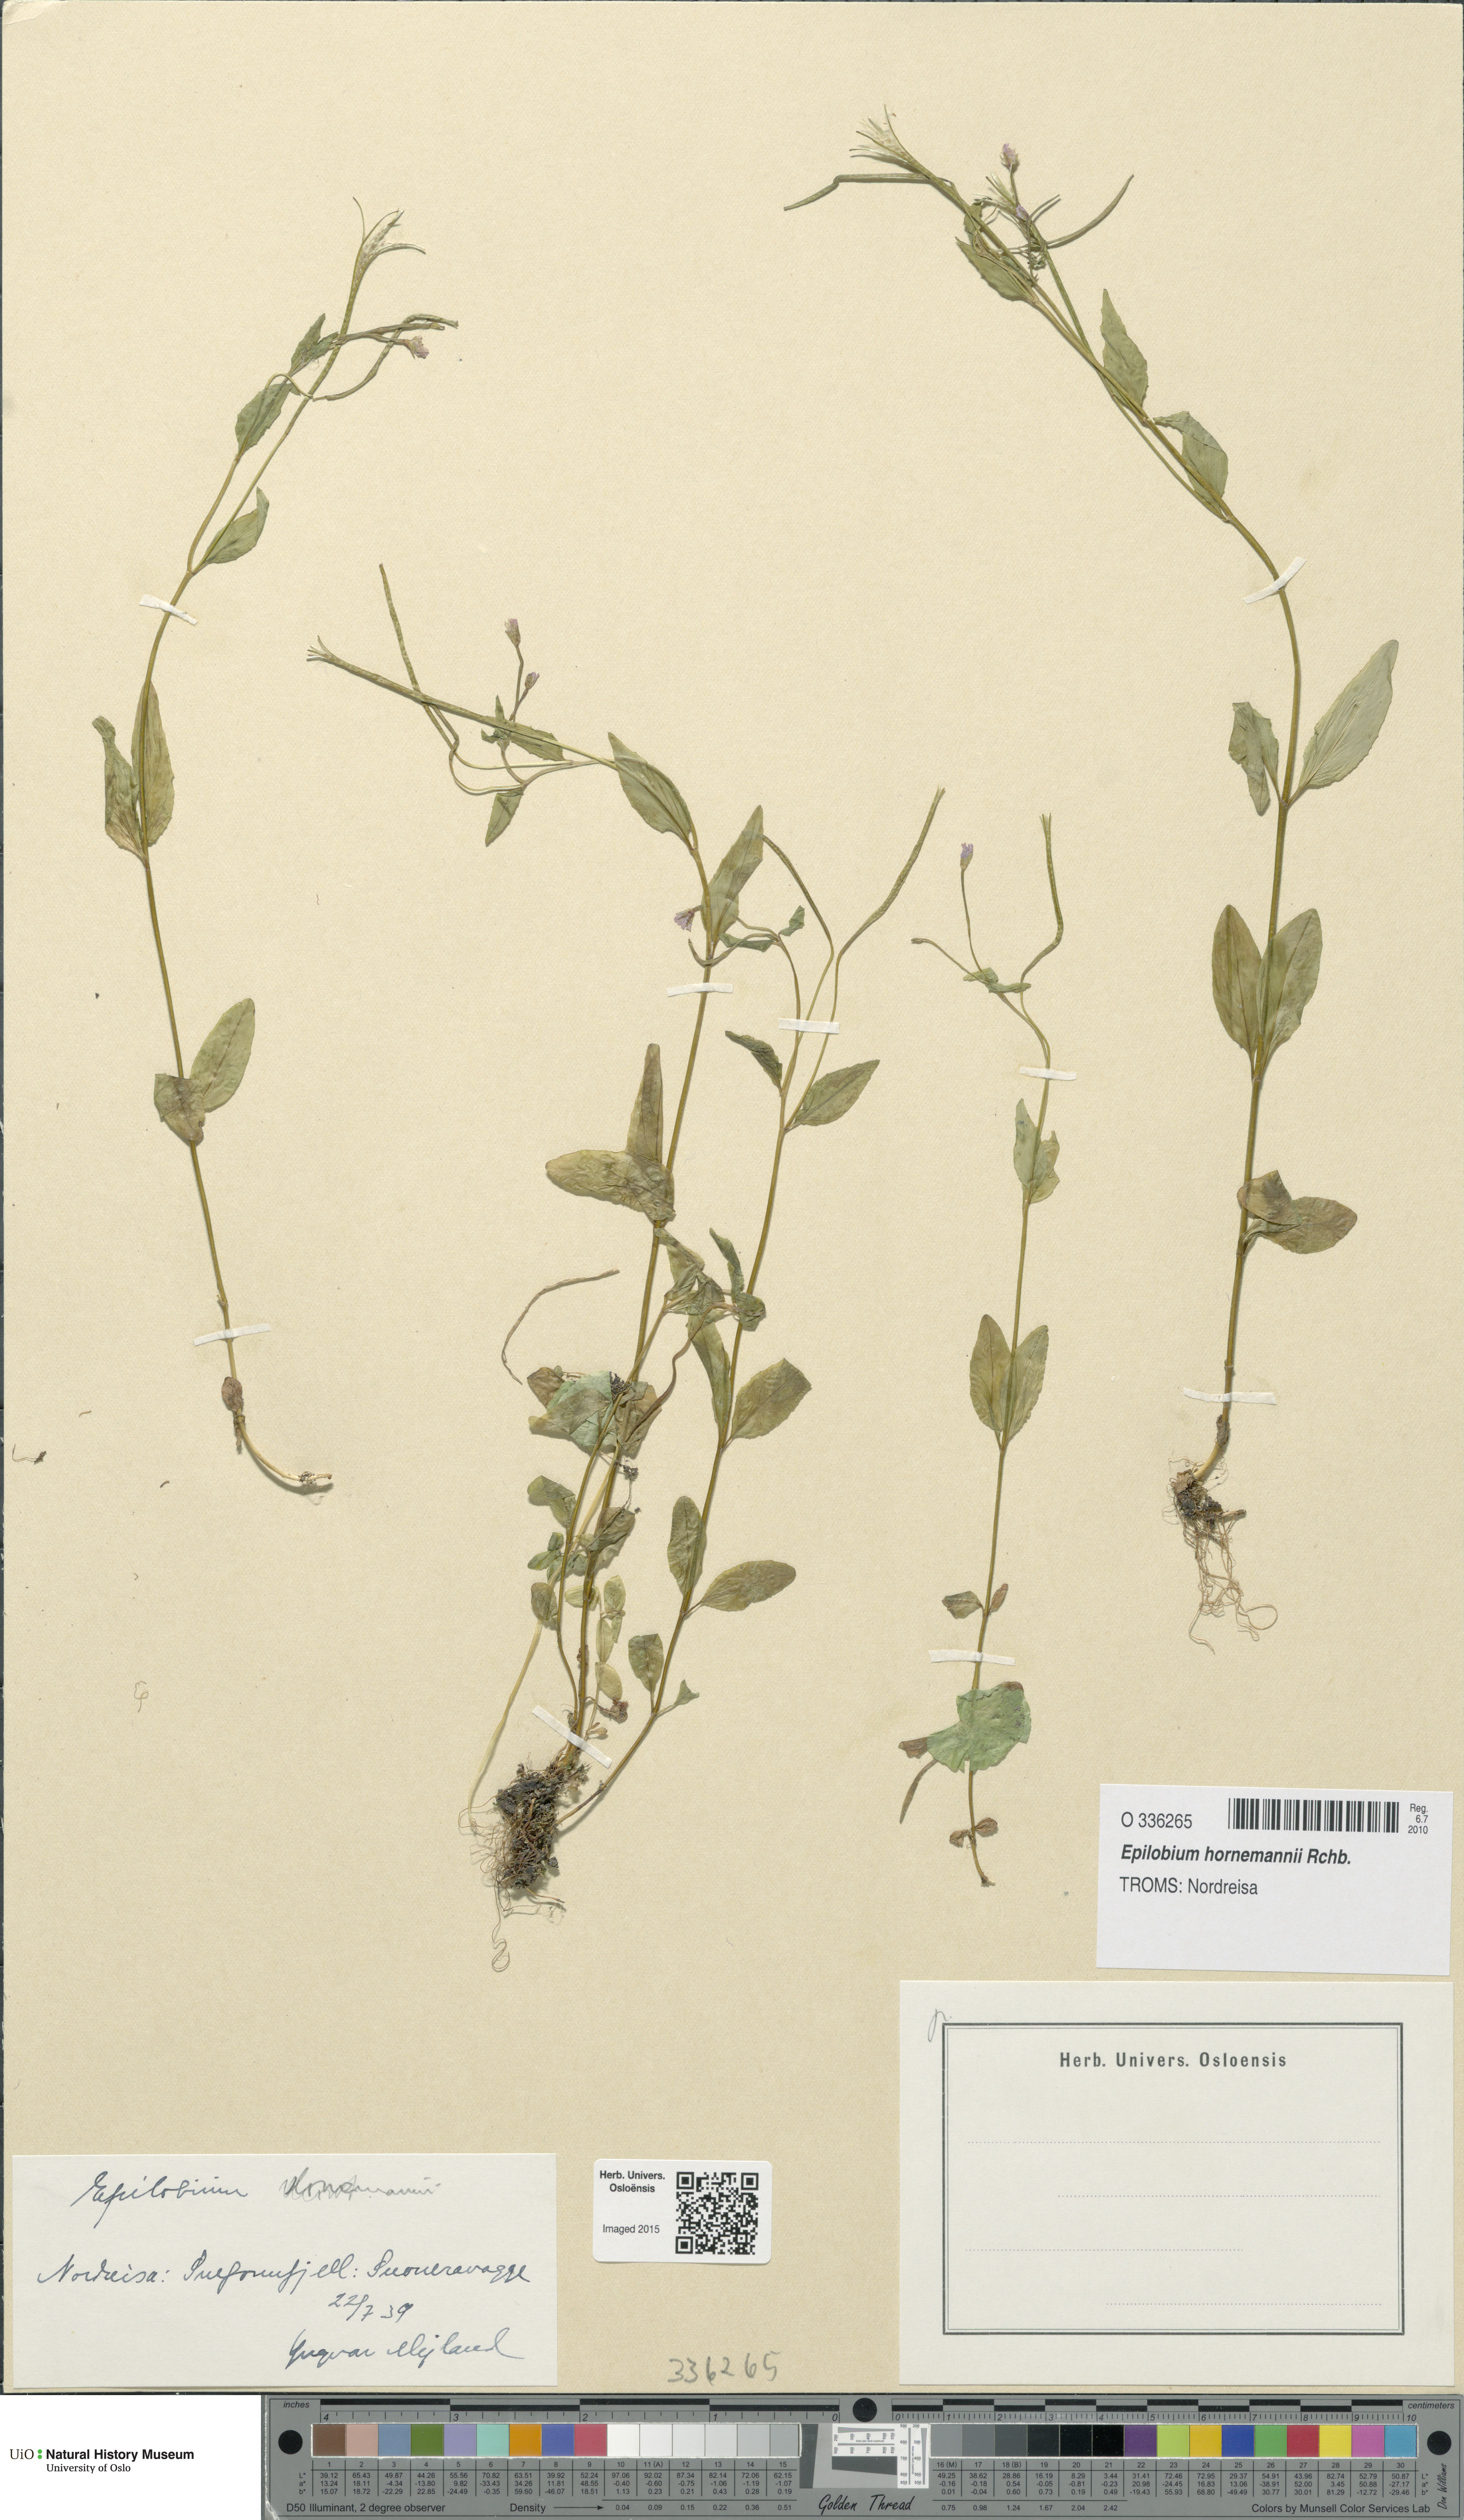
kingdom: Plantae
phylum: Tracheophyta
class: Magnoliopsida
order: Myrtales
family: Onagraceae
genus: Epilobium
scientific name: Epilobium hornemannii
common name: Hornemann's willowherb
